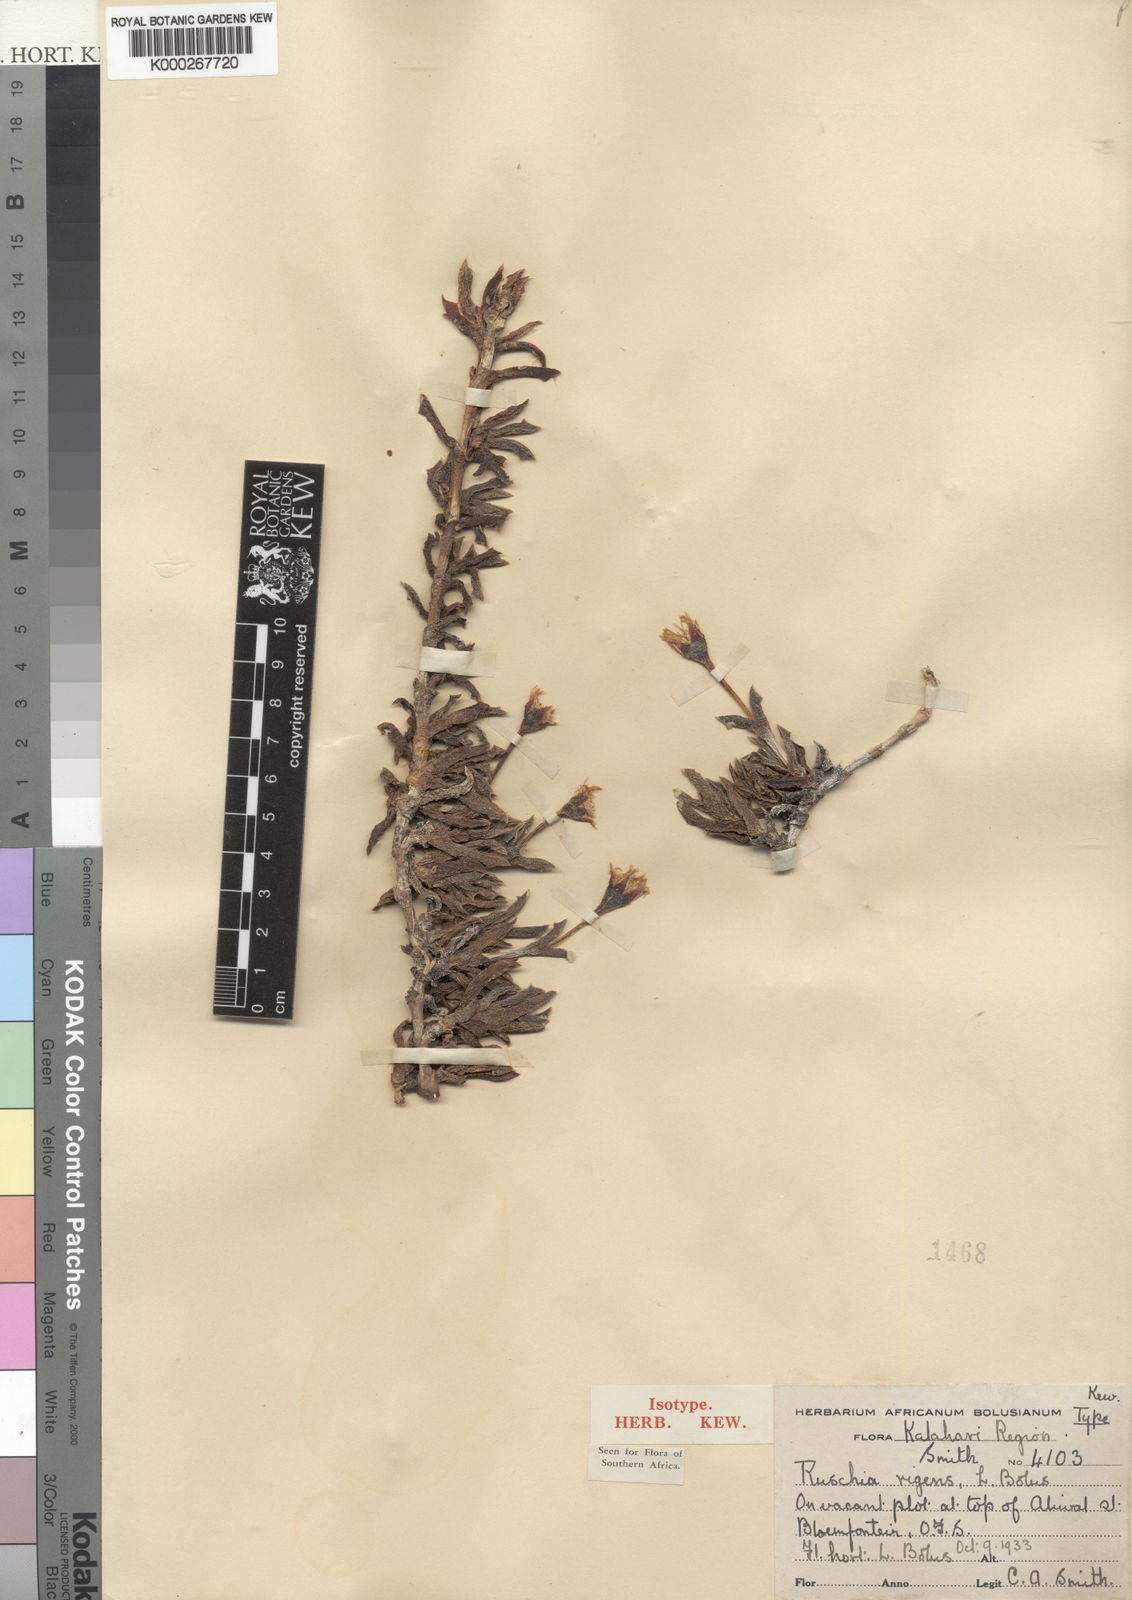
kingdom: Plantae
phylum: Tracheophyta
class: Magnoliopsida
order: Caryophyllales
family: Aizoaceae
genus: Ruschia
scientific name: Ruschia rigens
